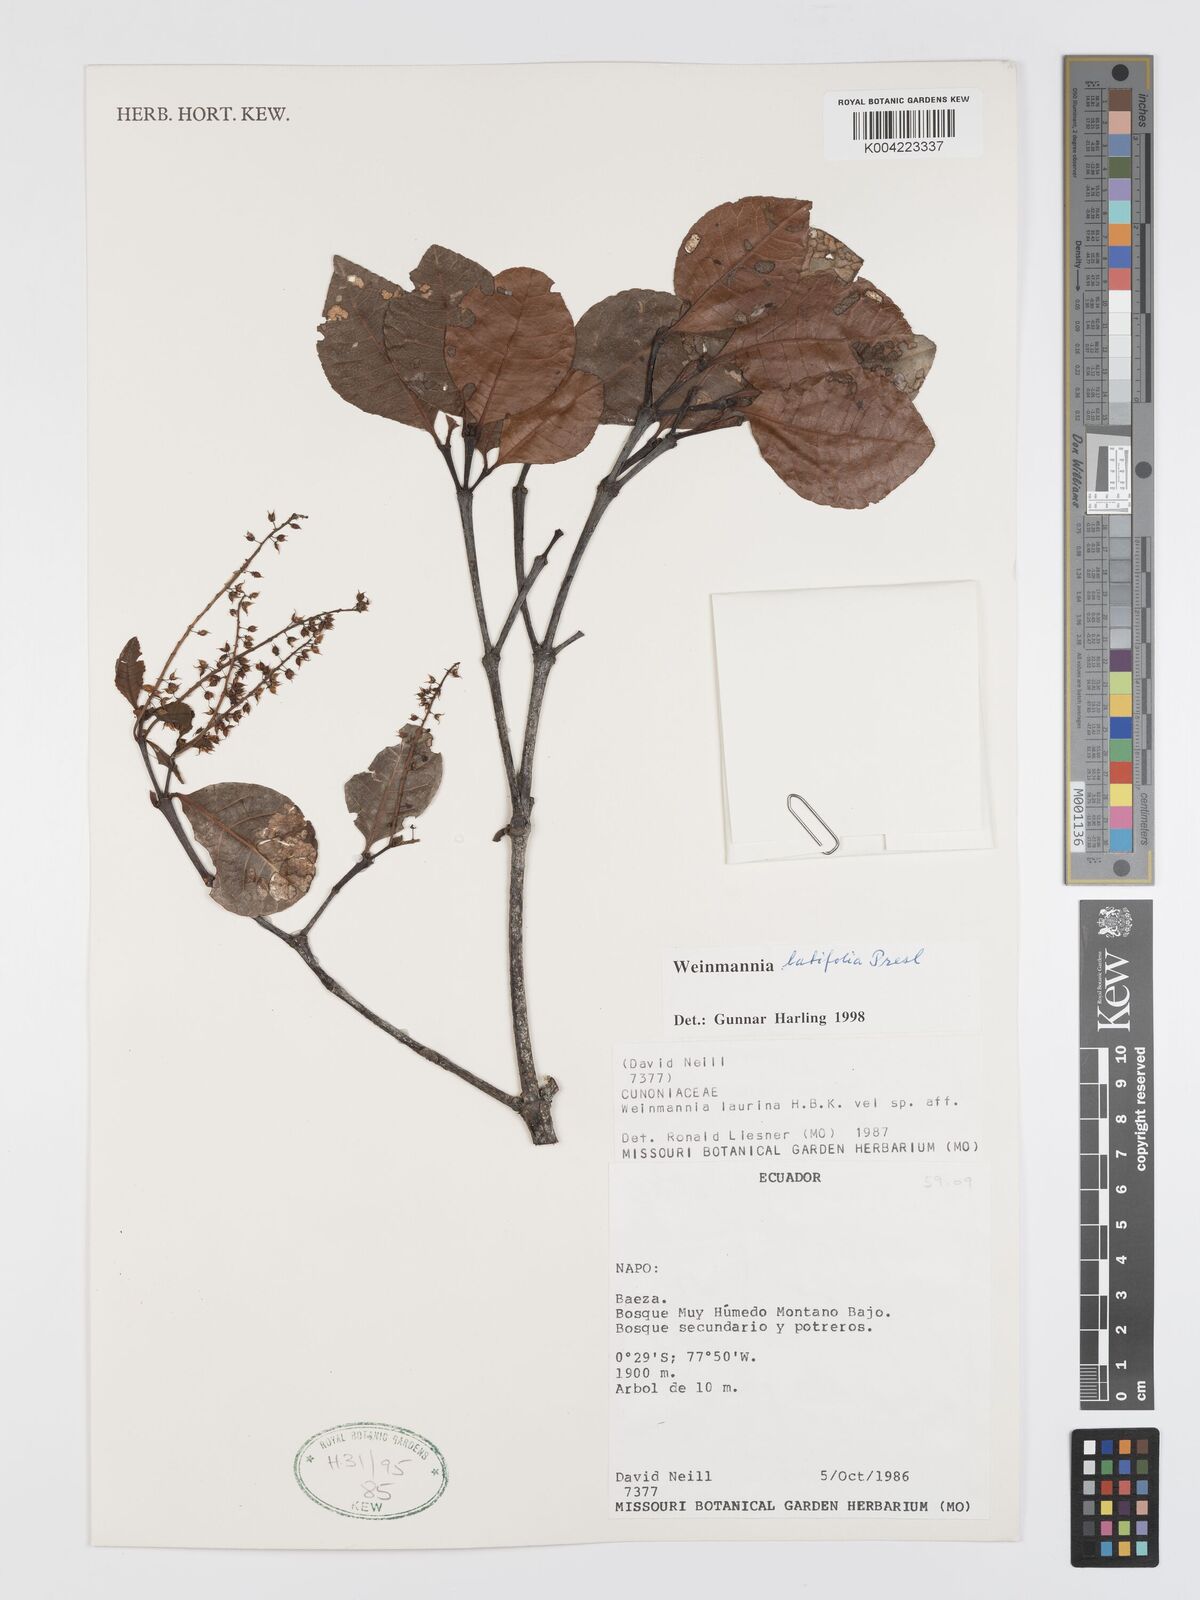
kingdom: Plantae
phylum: Tracheophyta
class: Magnoliopsida
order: Oxalidales
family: Cunoniaceae
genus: Weinmannia
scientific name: Weinmannia latifolia
